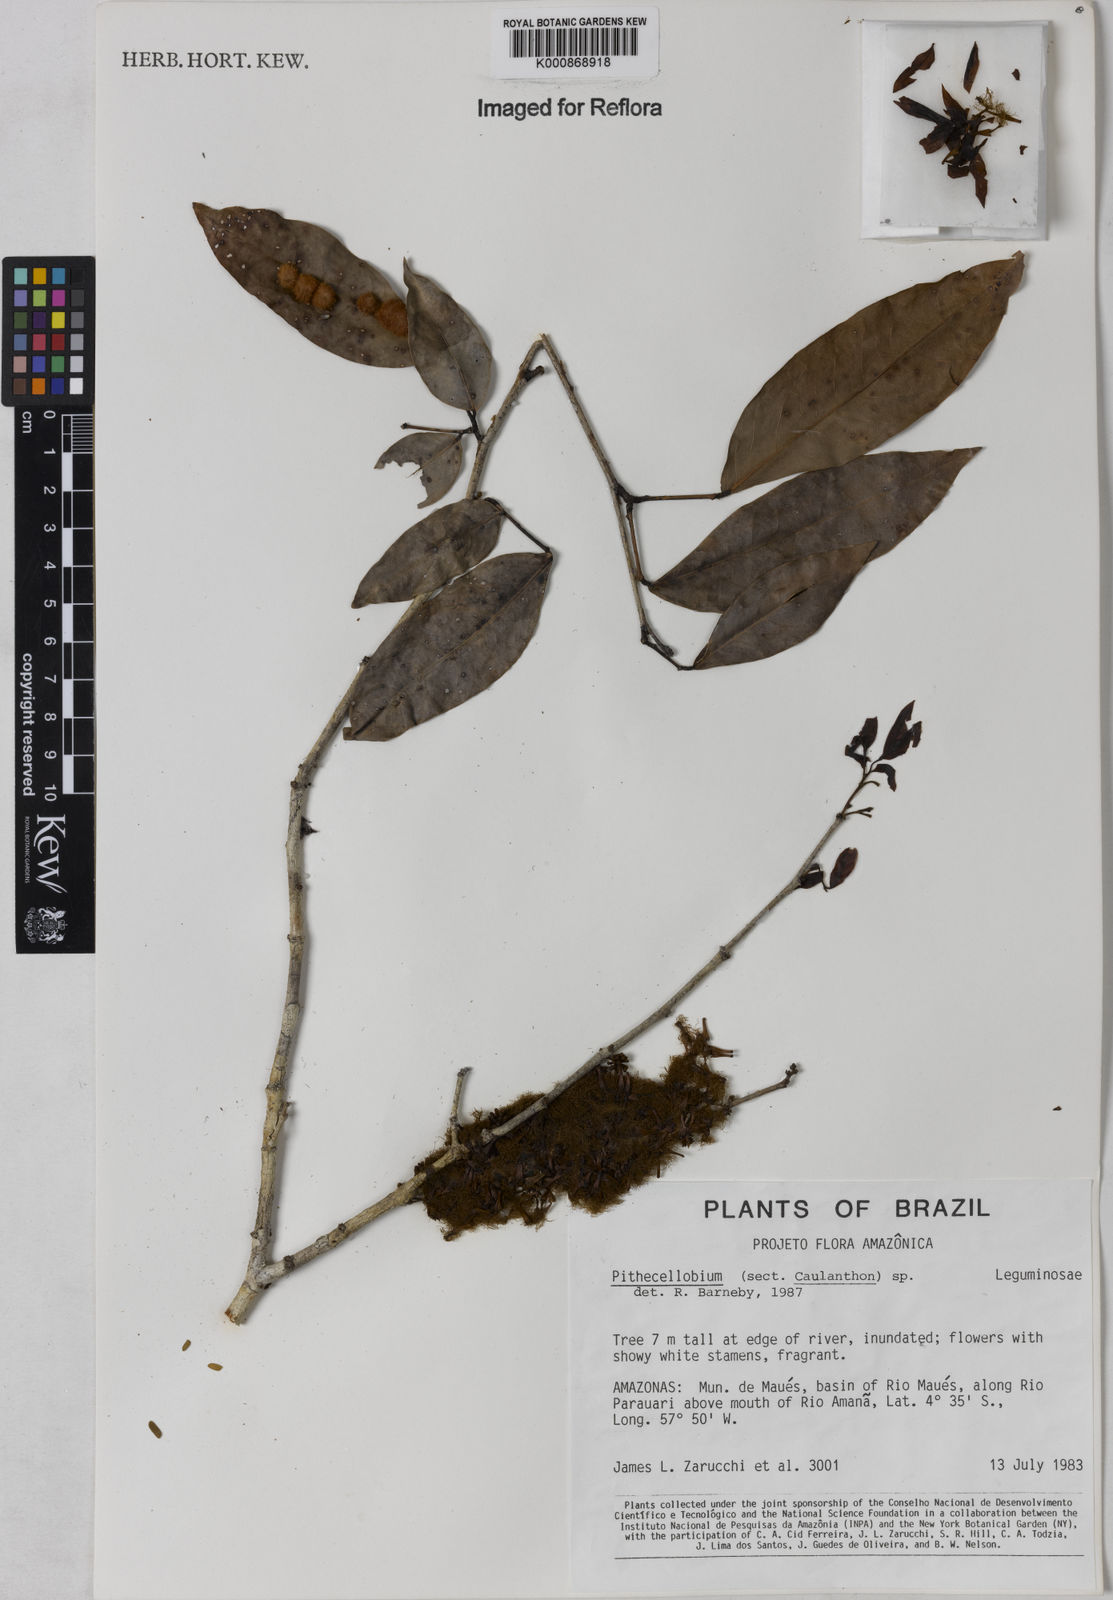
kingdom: Plantae
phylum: Tracheophyta
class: Magnoliopsida
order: Fabales
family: Fabaceae
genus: Zygia
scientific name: Zygia
